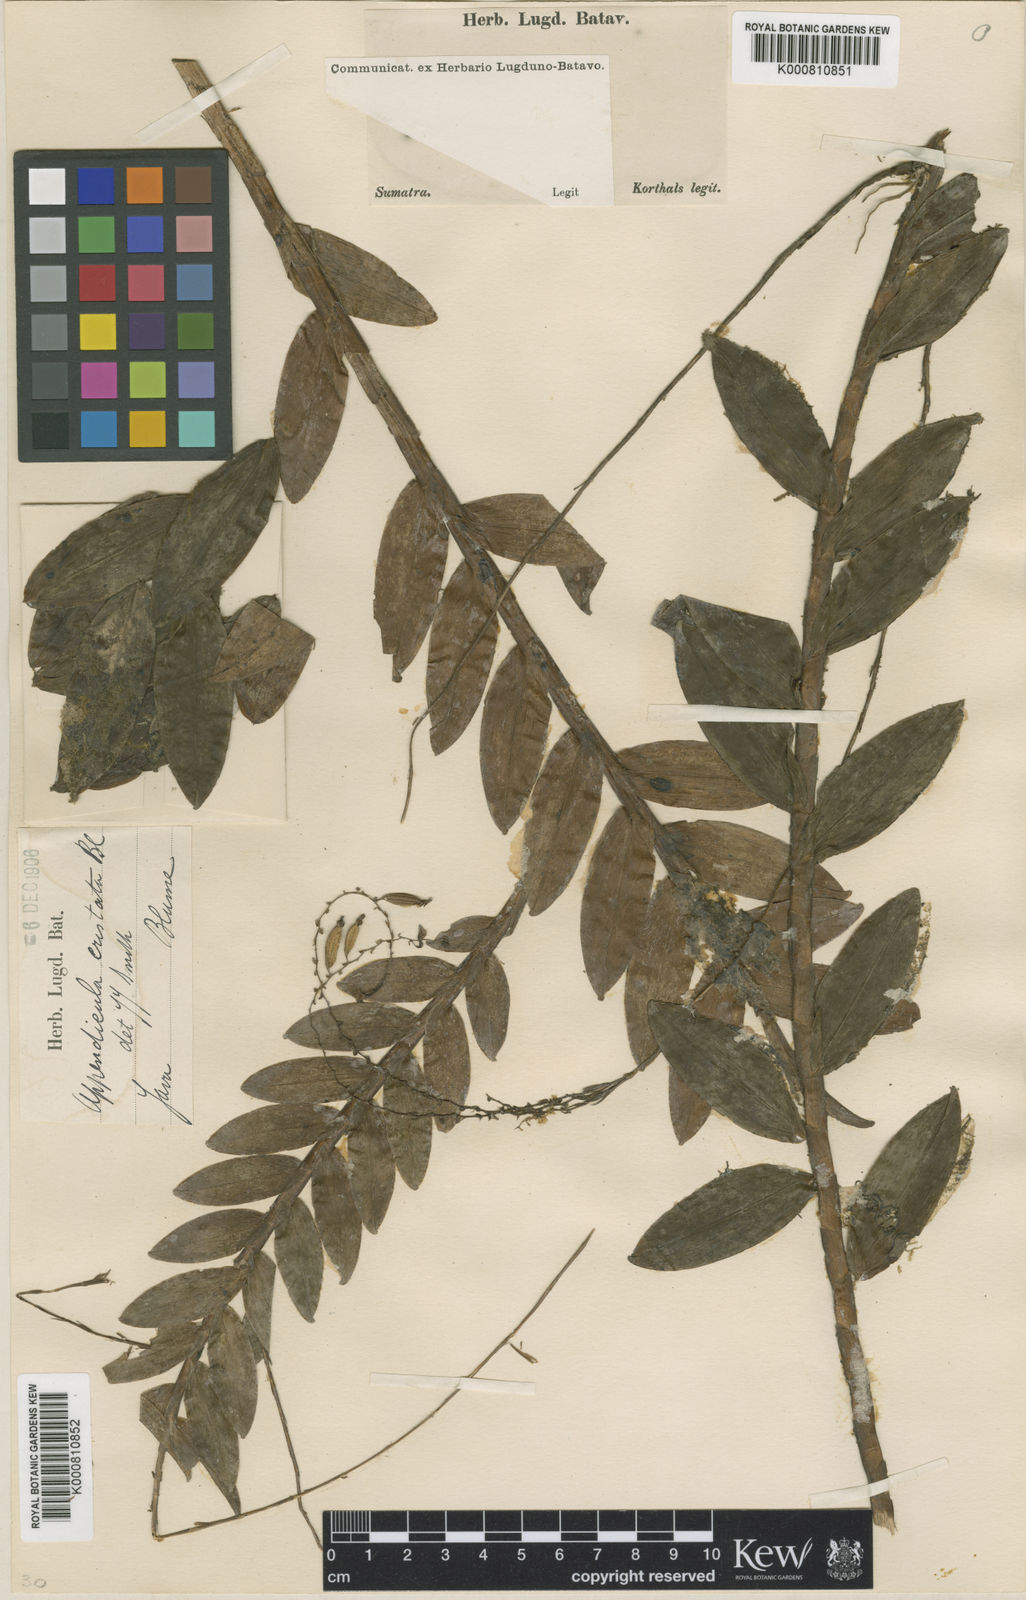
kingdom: Plantae
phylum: Tracheophyta
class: Liliopsida
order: Asparagales
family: Orchidaceae
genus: Appendicula
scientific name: Appendicula cristata
